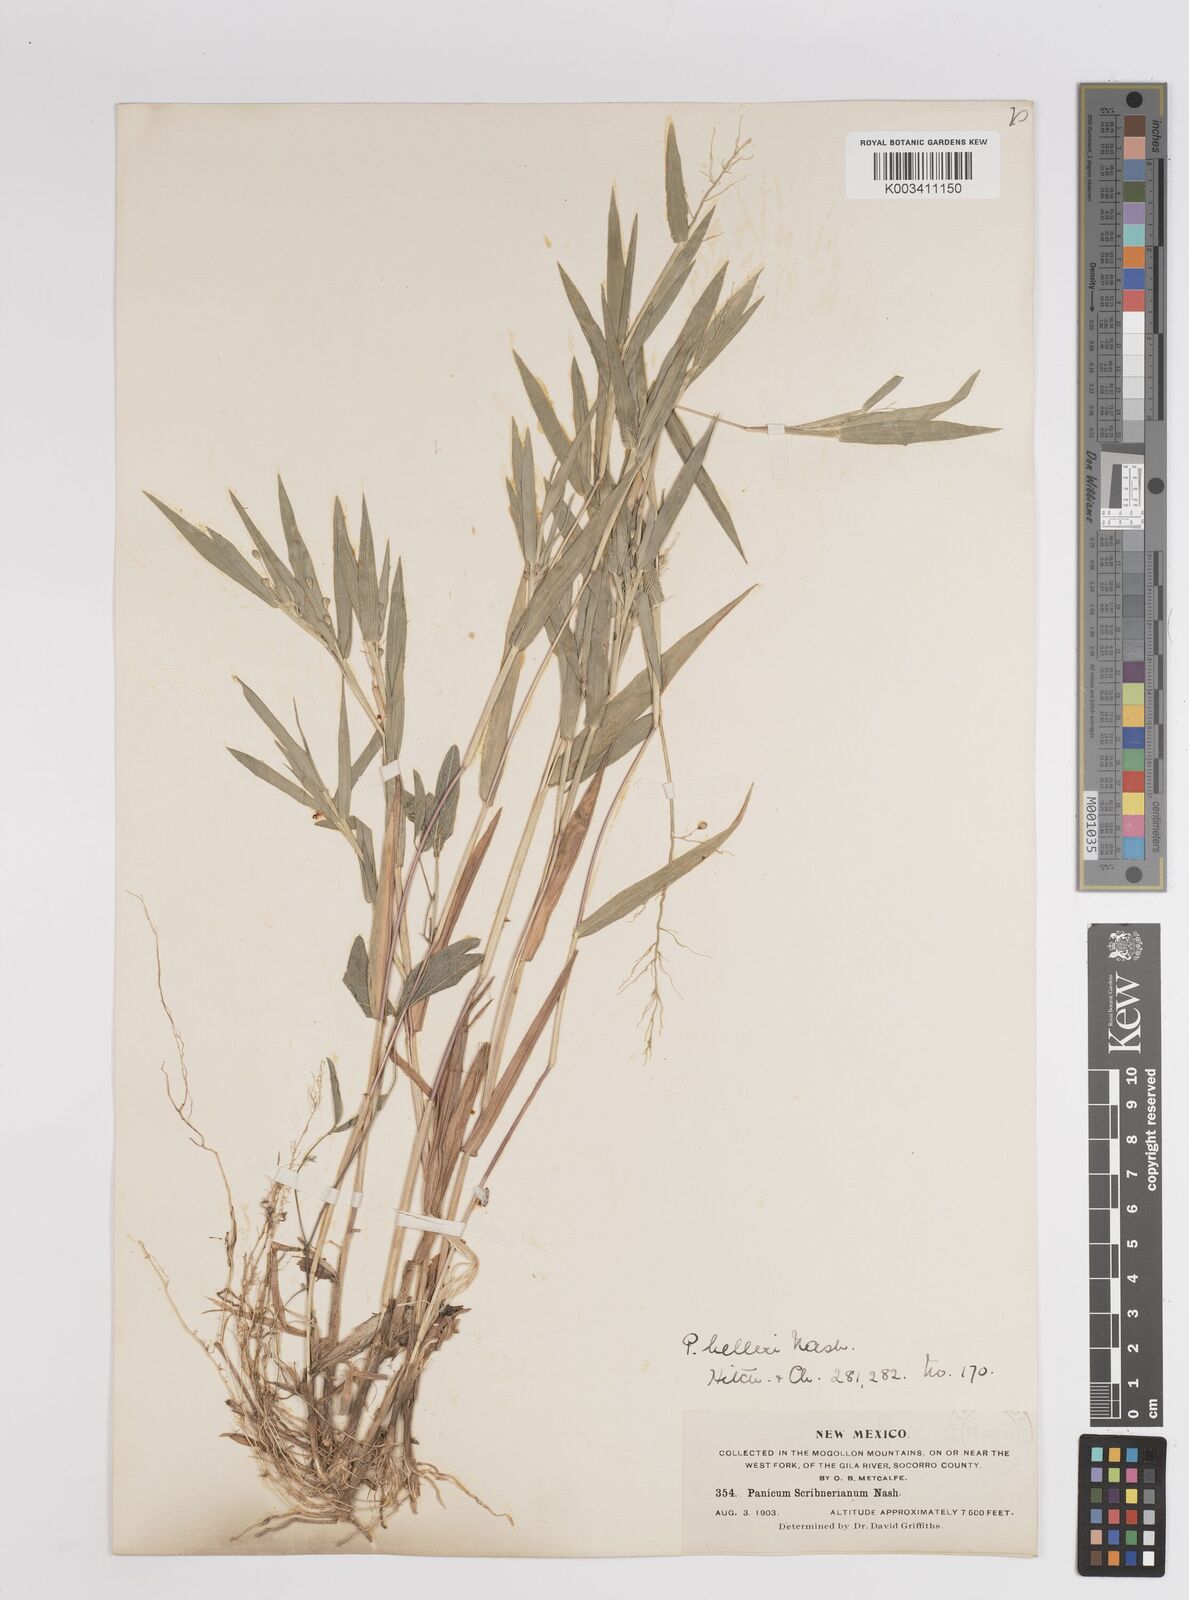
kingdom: Plantae
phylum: Tracheophyta
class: Liliopsida
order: Poales
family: Poaceae
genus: Dichanthelium
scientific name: Dichanthelium oligosanthes
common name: Few-anther obscuregrass
